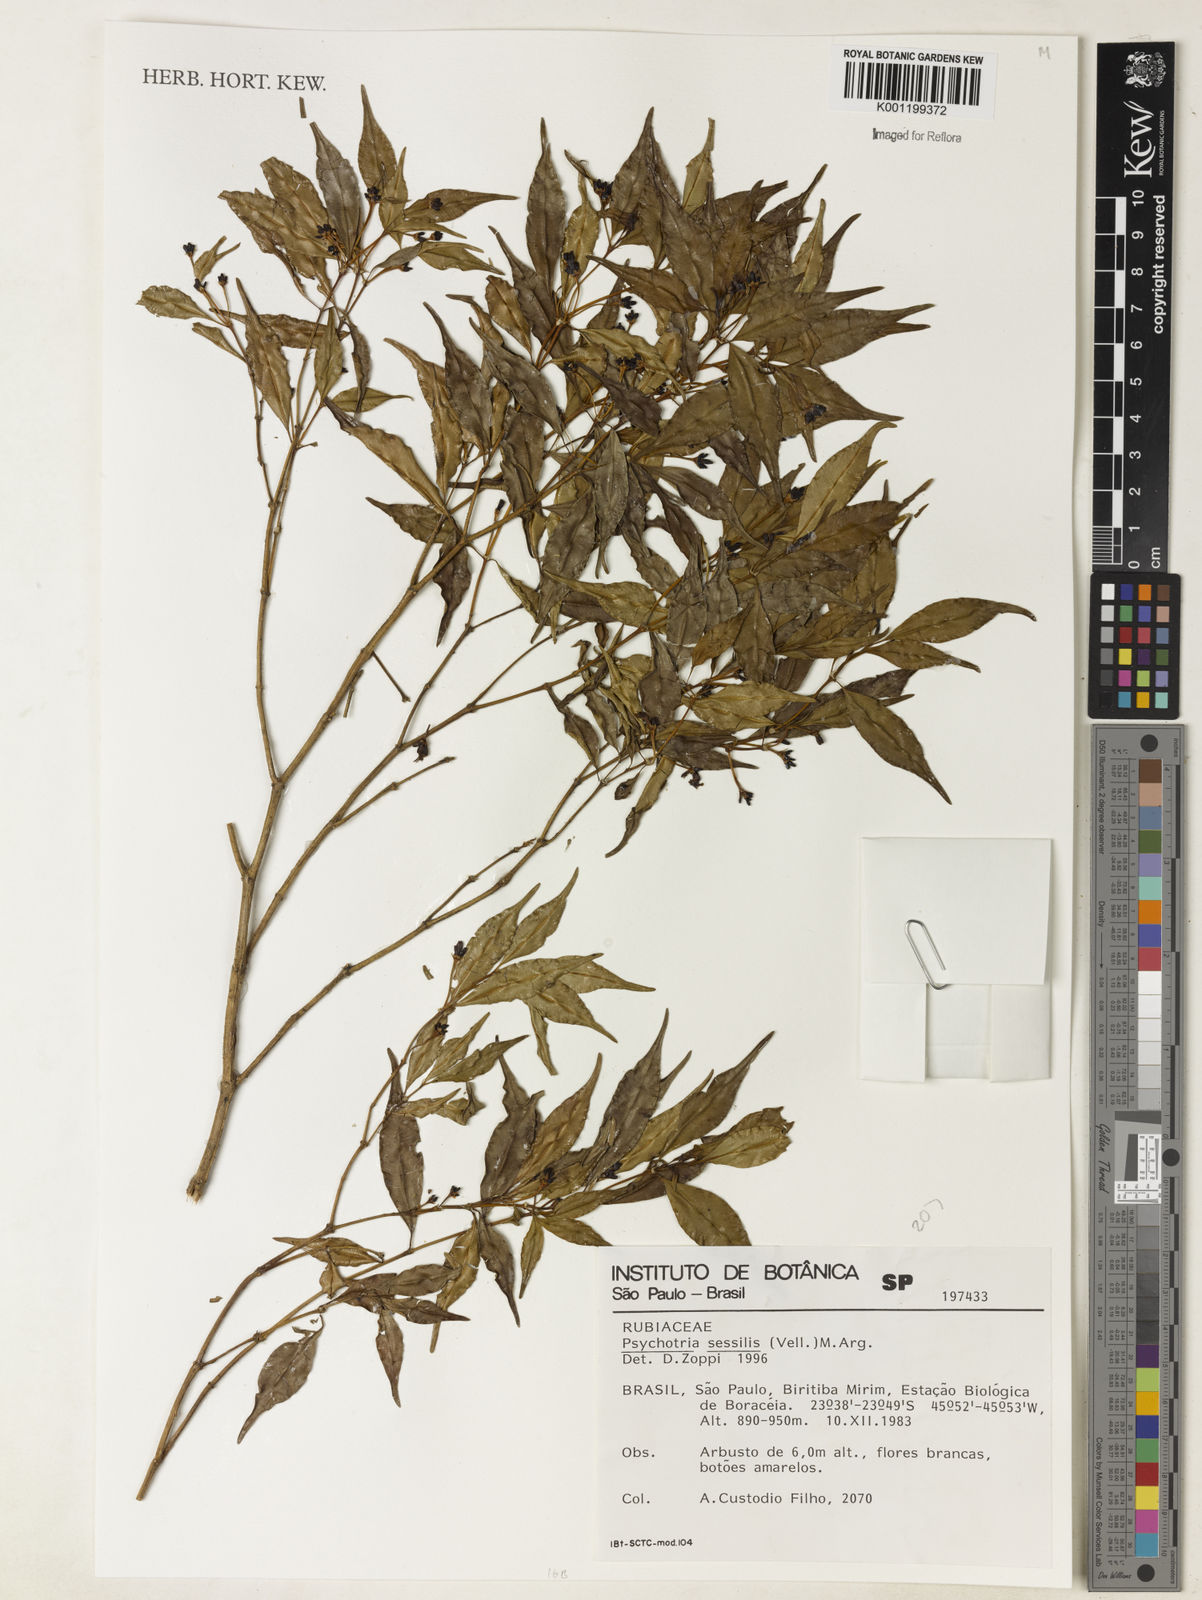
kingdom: Plantae
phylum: Tracheophyta
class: Magnoliopsida
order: Gentianales
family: Rubiaceae
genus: Palicourea
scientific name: Palicourea sessilis
